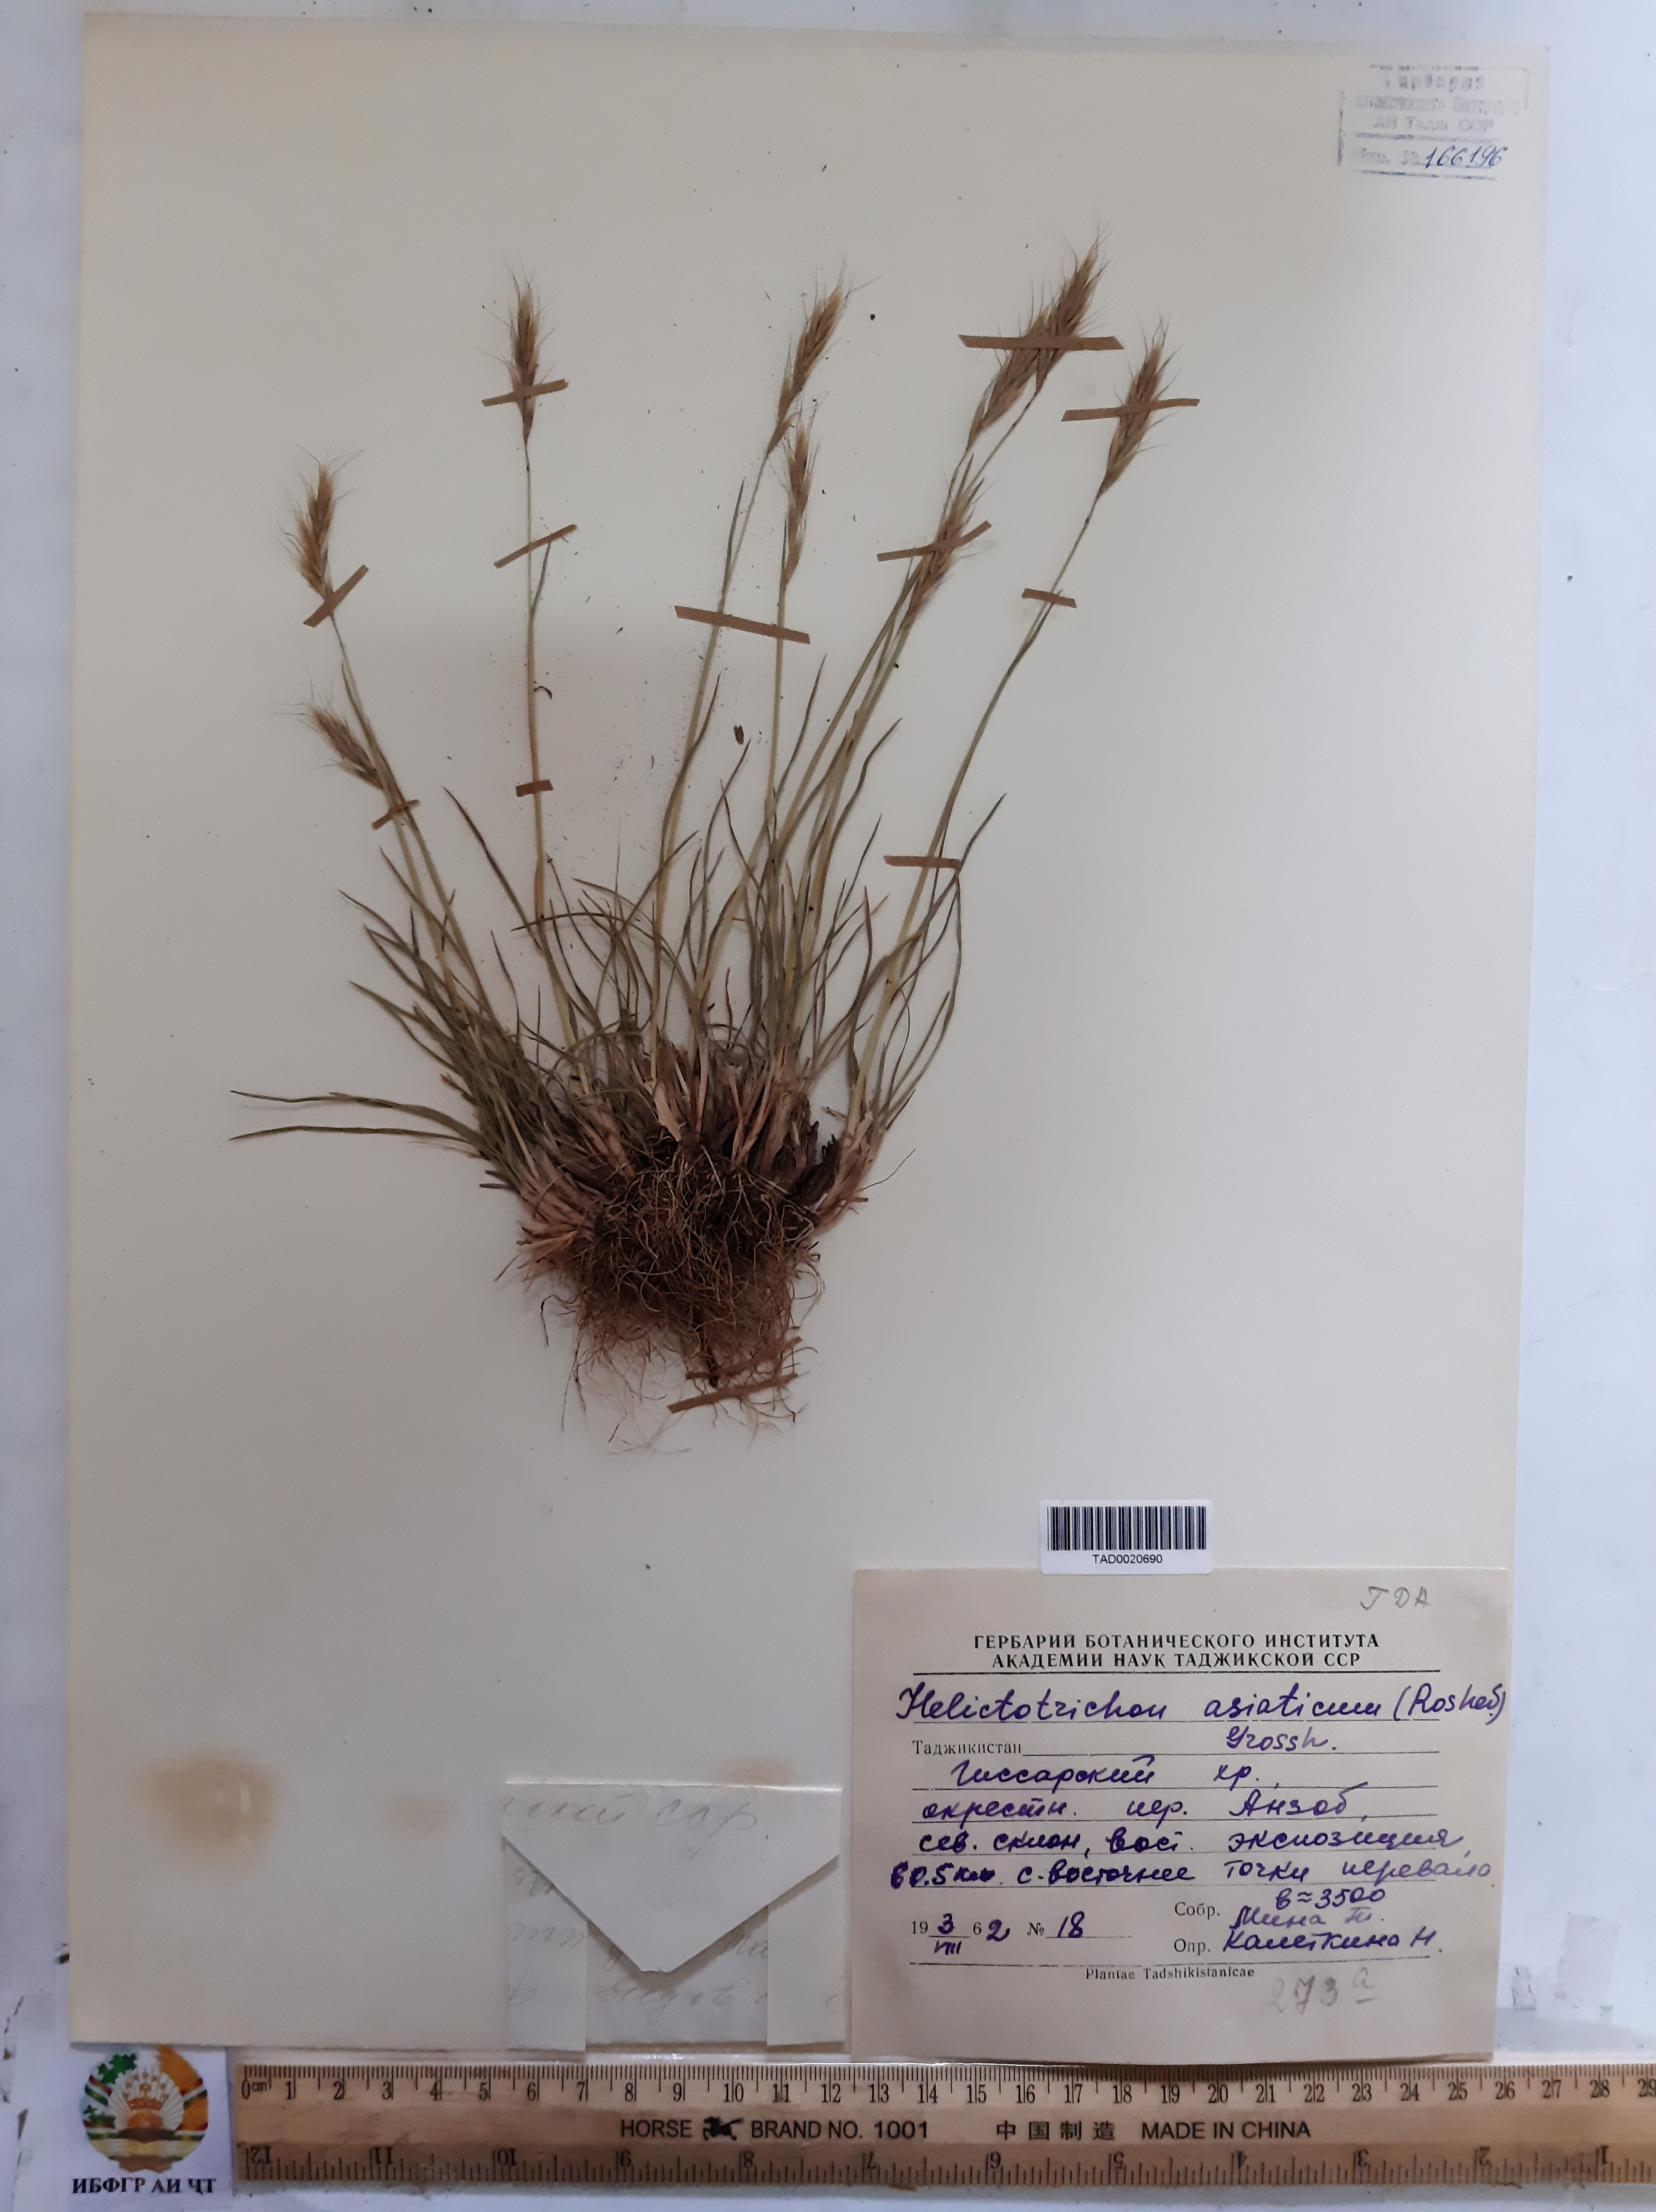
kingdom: Plantae
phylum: Tracheophyta
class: Liliopsida
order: Poales
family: Poaceae
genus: Helictochloa
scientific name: Helictochloa hookeri
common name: Hooker's alpine oatgrass
